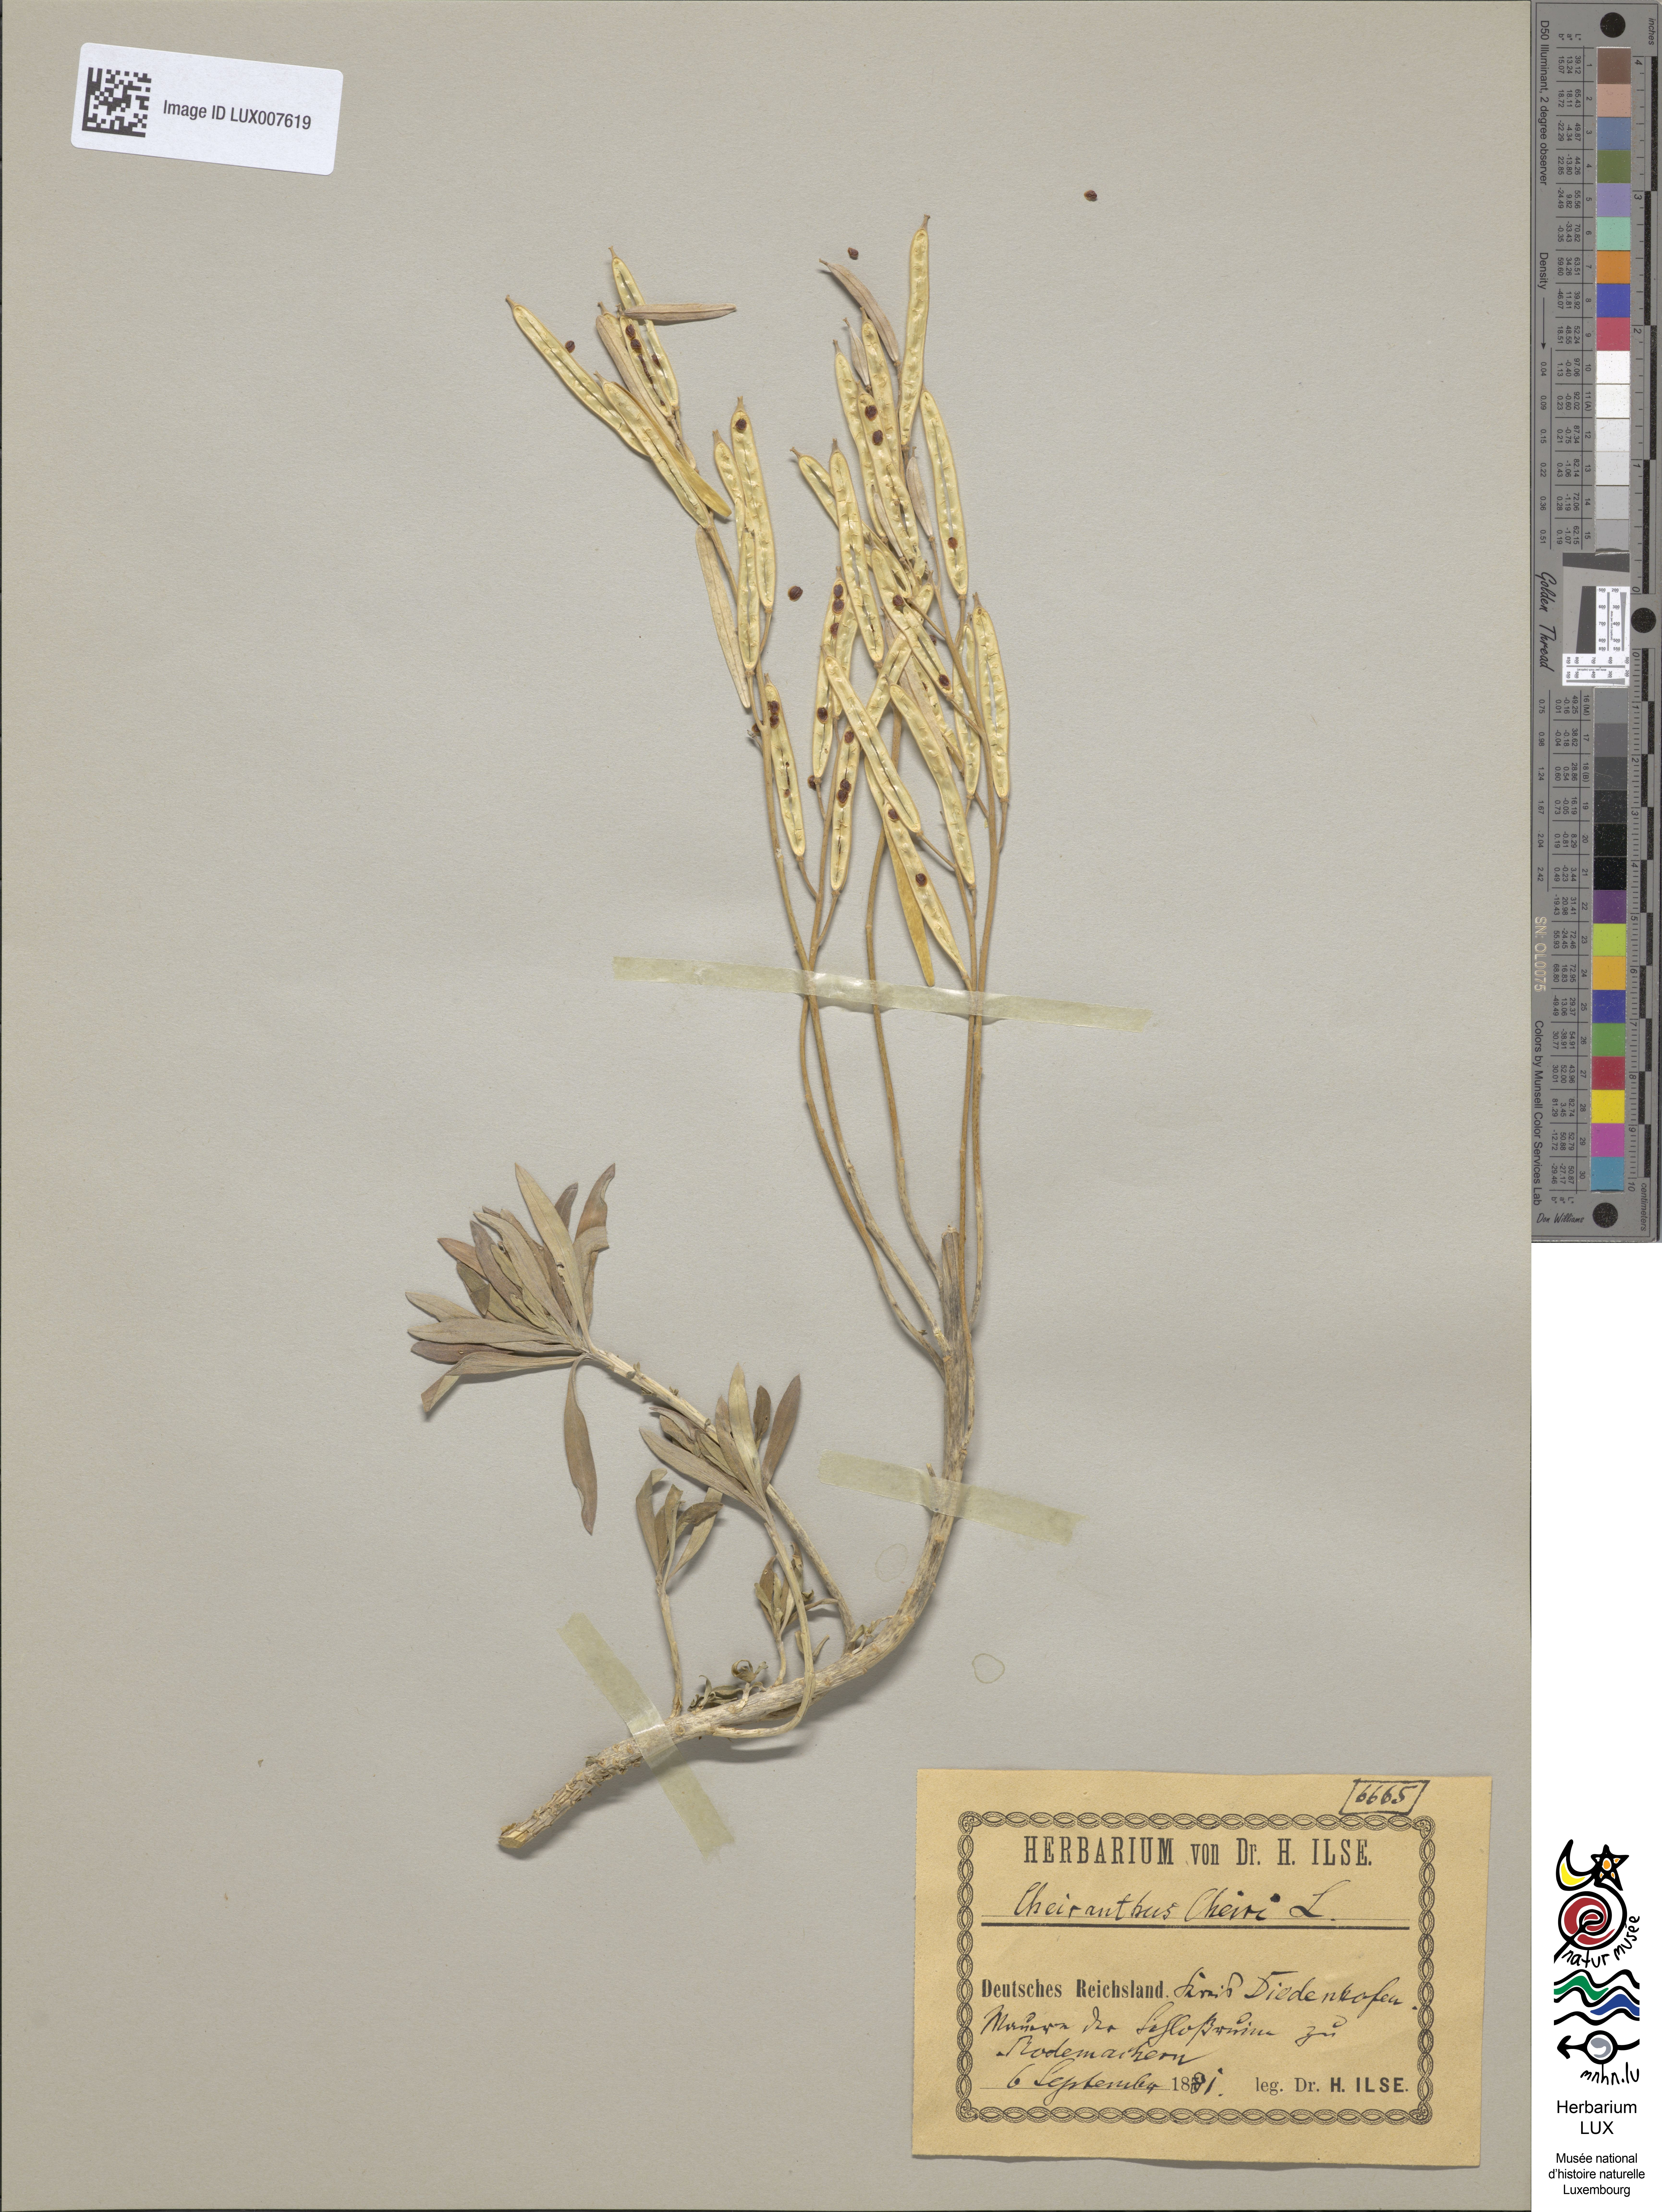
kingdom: Plantae
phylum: Tracheophyta
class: Magnoliopsida
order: Brassicales
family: Brassicaceae
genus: Erysimum
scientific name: Erysimum cheiri
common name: Wallflower
